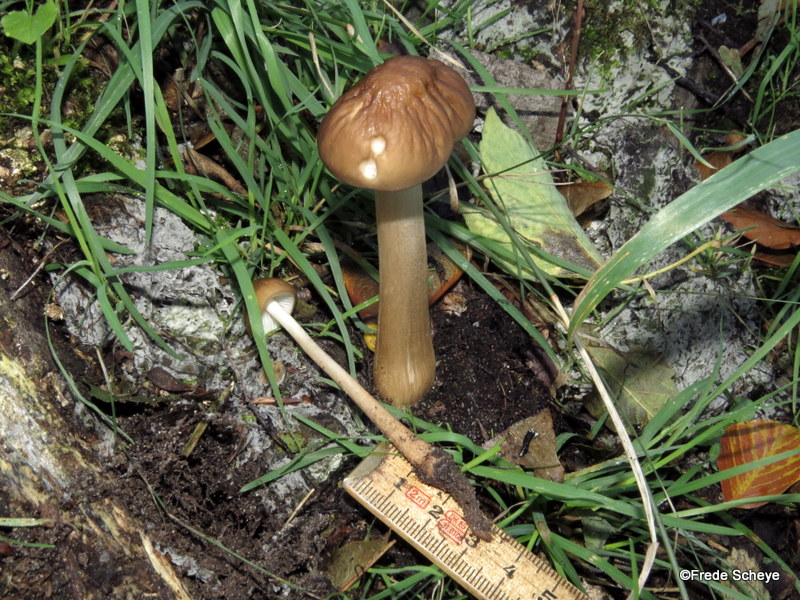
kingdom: Fungi
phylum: Basidiomycota
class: Agaricomycetes
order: Agaricales
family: Physalacriaceae
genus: Hymenopellis
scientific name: Hymenopellis radicata
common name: almindelig pælerodshat
